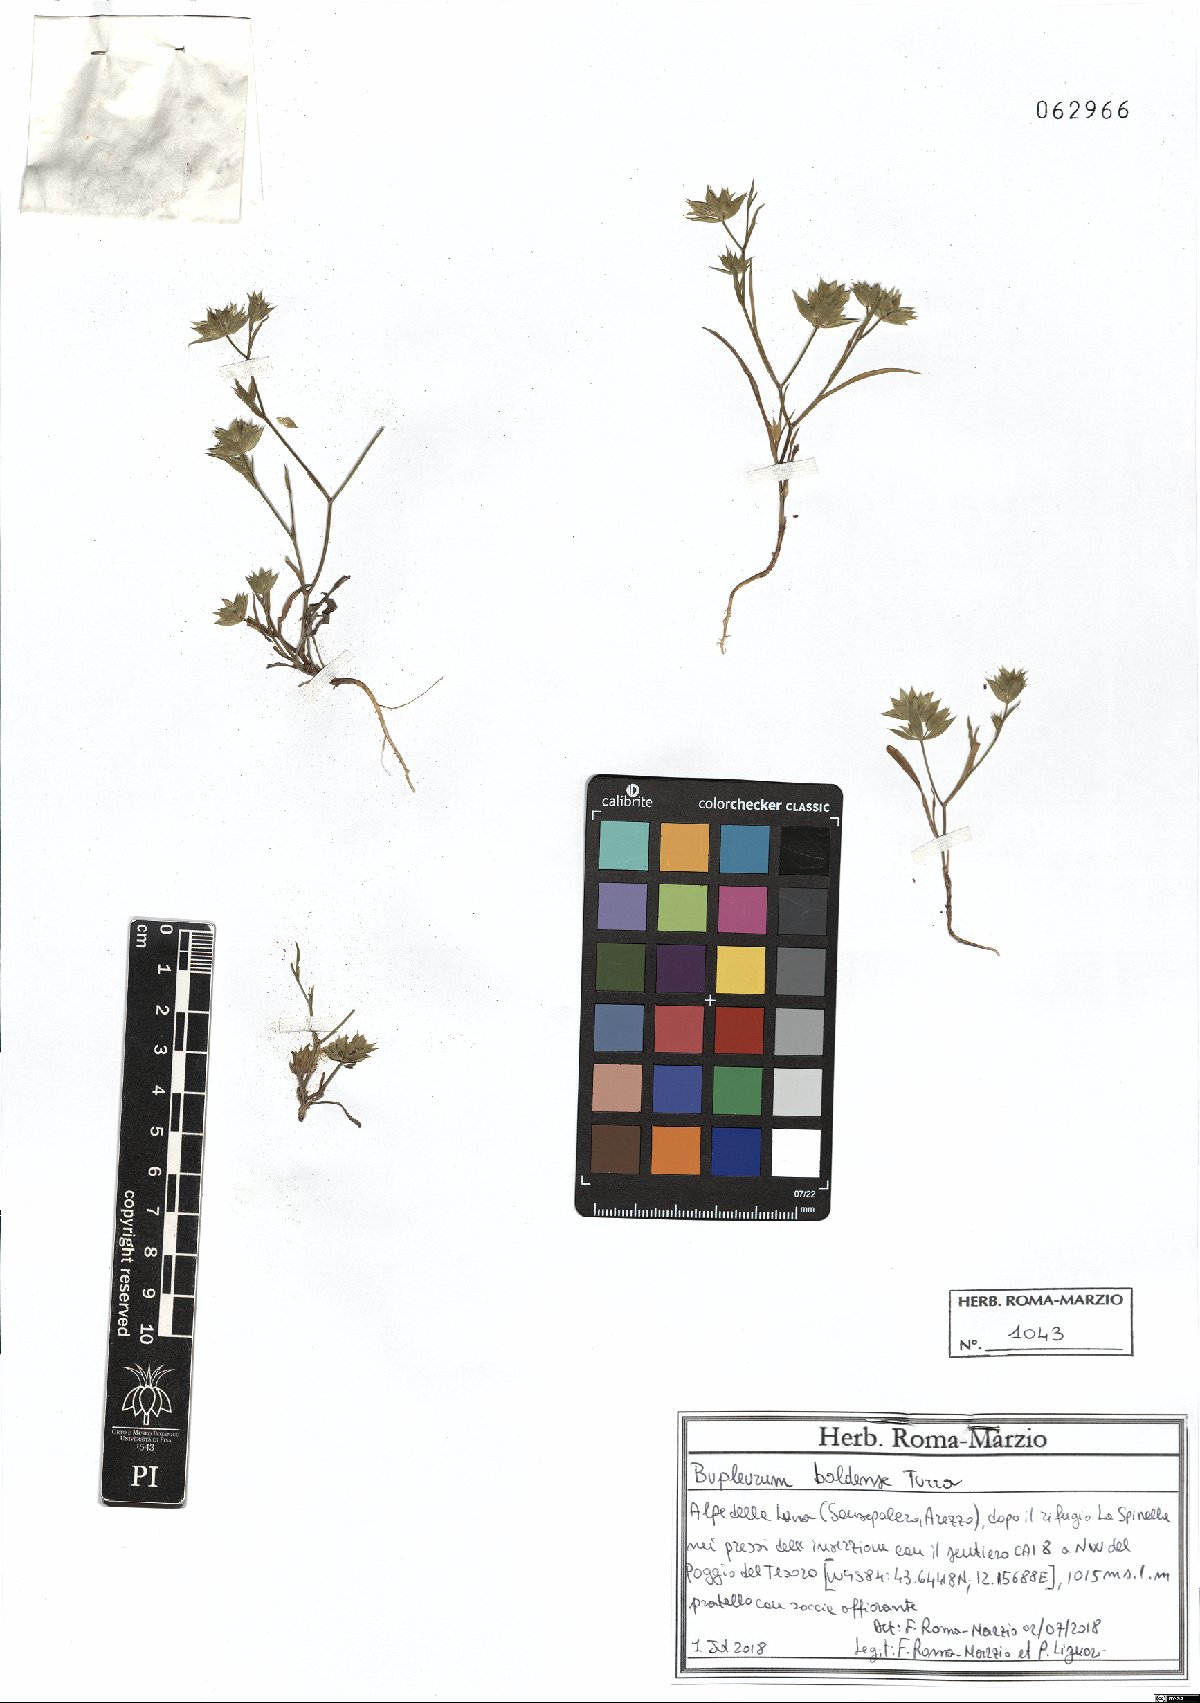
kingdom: Plantae
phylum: Tracheophyta
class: Magnoliopsida
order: Apiales
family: Apiaceae
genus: Bupleurum
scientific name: Bupleurum baldense
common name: Small hare's-ear
